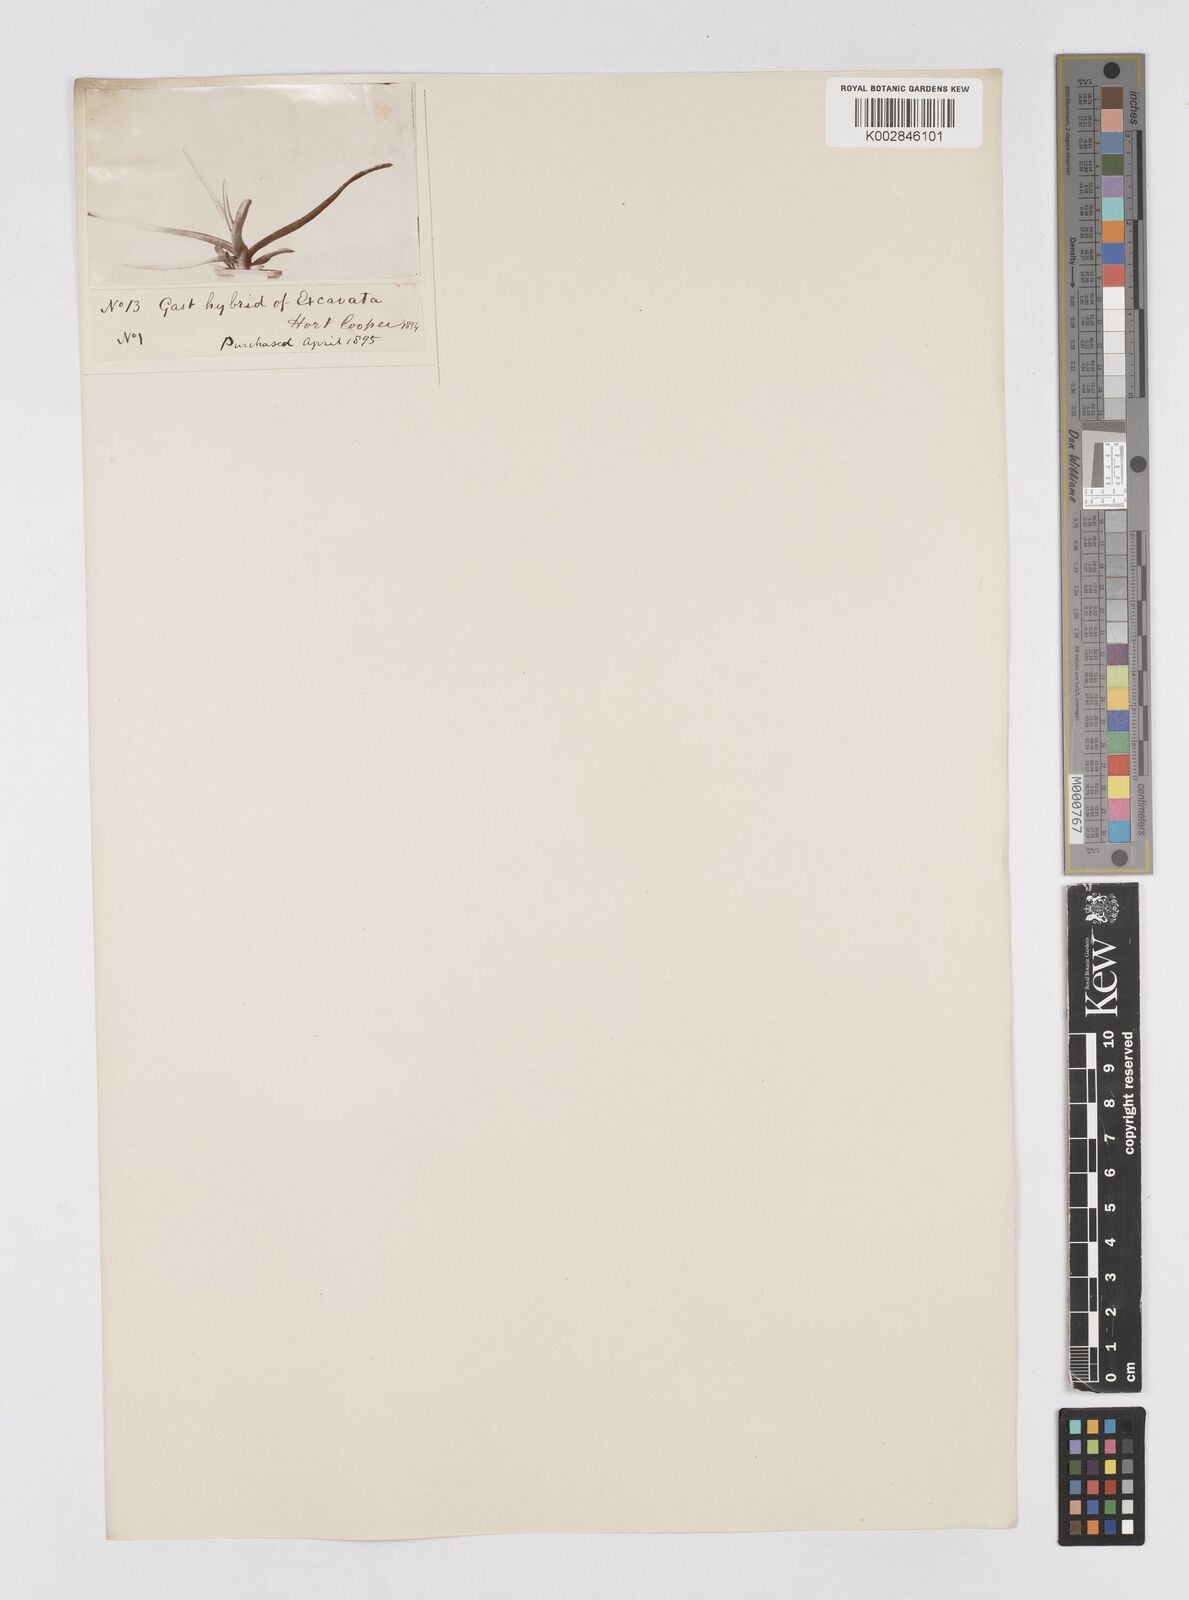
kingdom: Plantae
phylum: Tracheophyta
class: Liliopsida
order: Asparagales
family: Asphodelaceae
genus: Gasteria
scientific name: Gasteria
